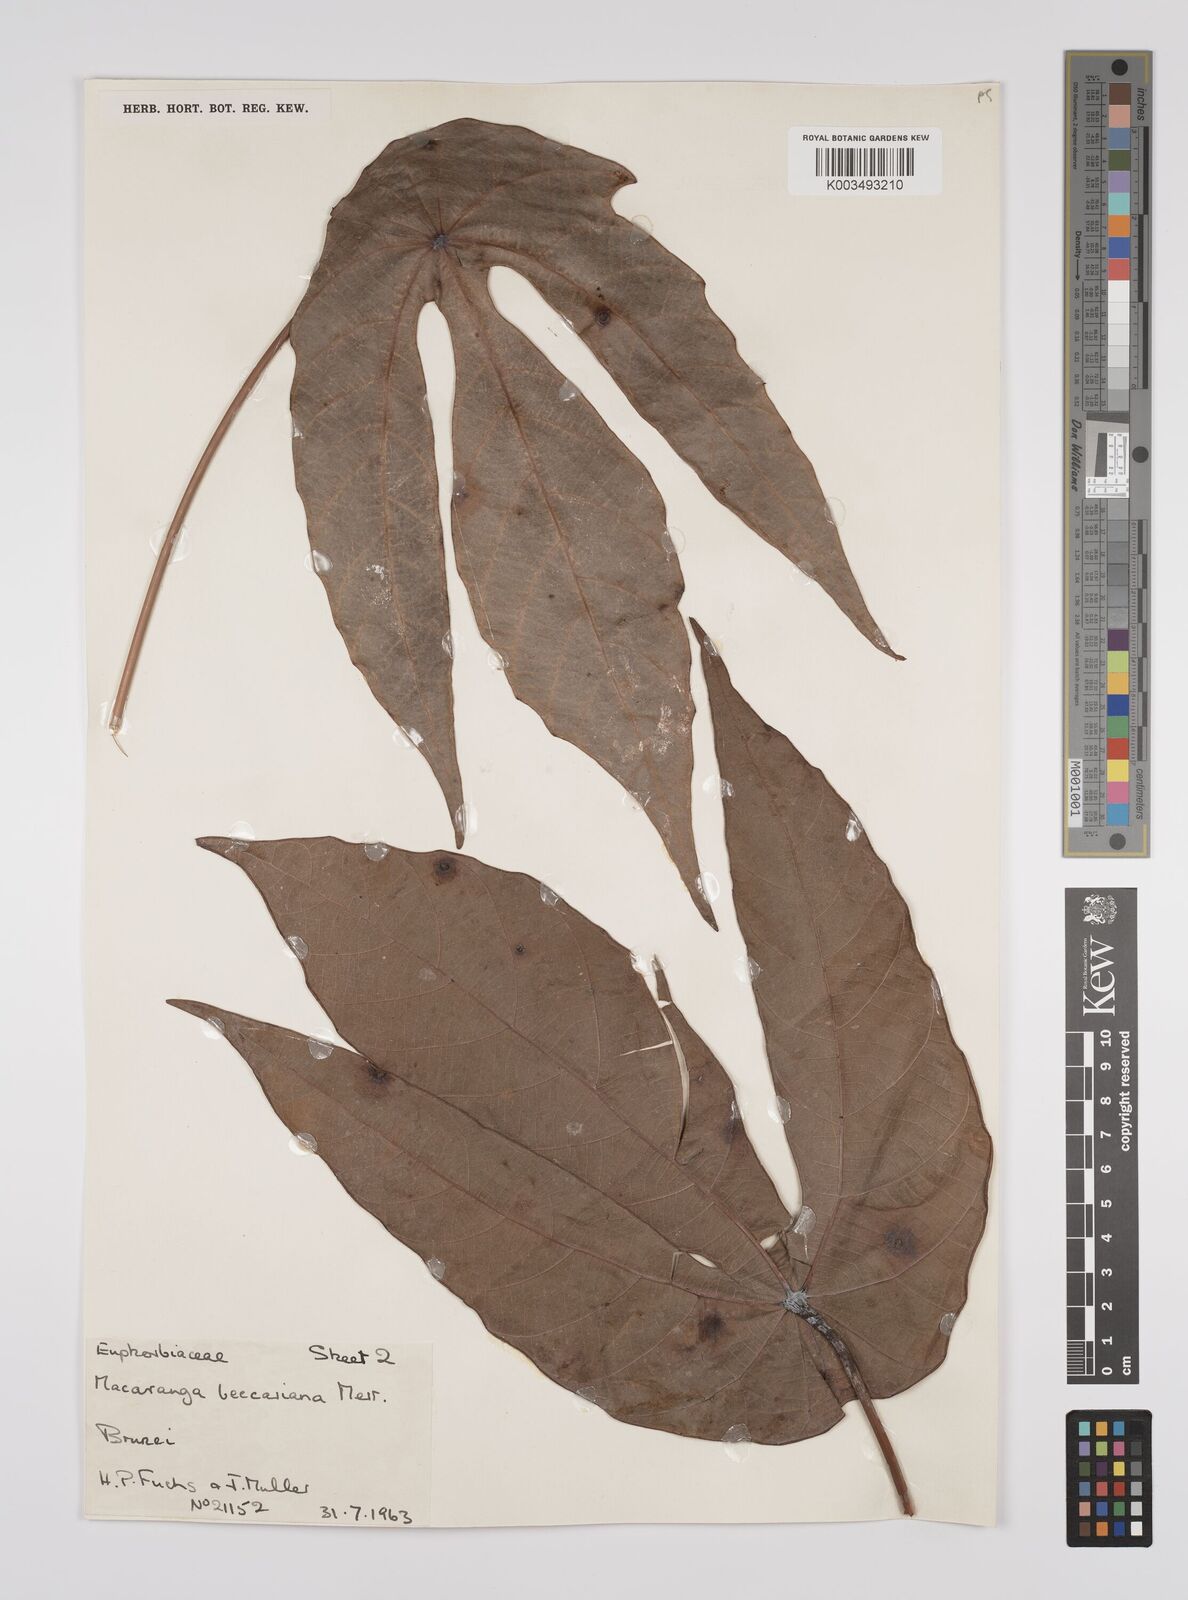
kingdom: Plantae
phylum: Tracheophyta
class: Magnoliopsida
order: Malpighiales
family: Euphorbiaceae
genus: Macaranga
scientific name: Macaranga beccariana
